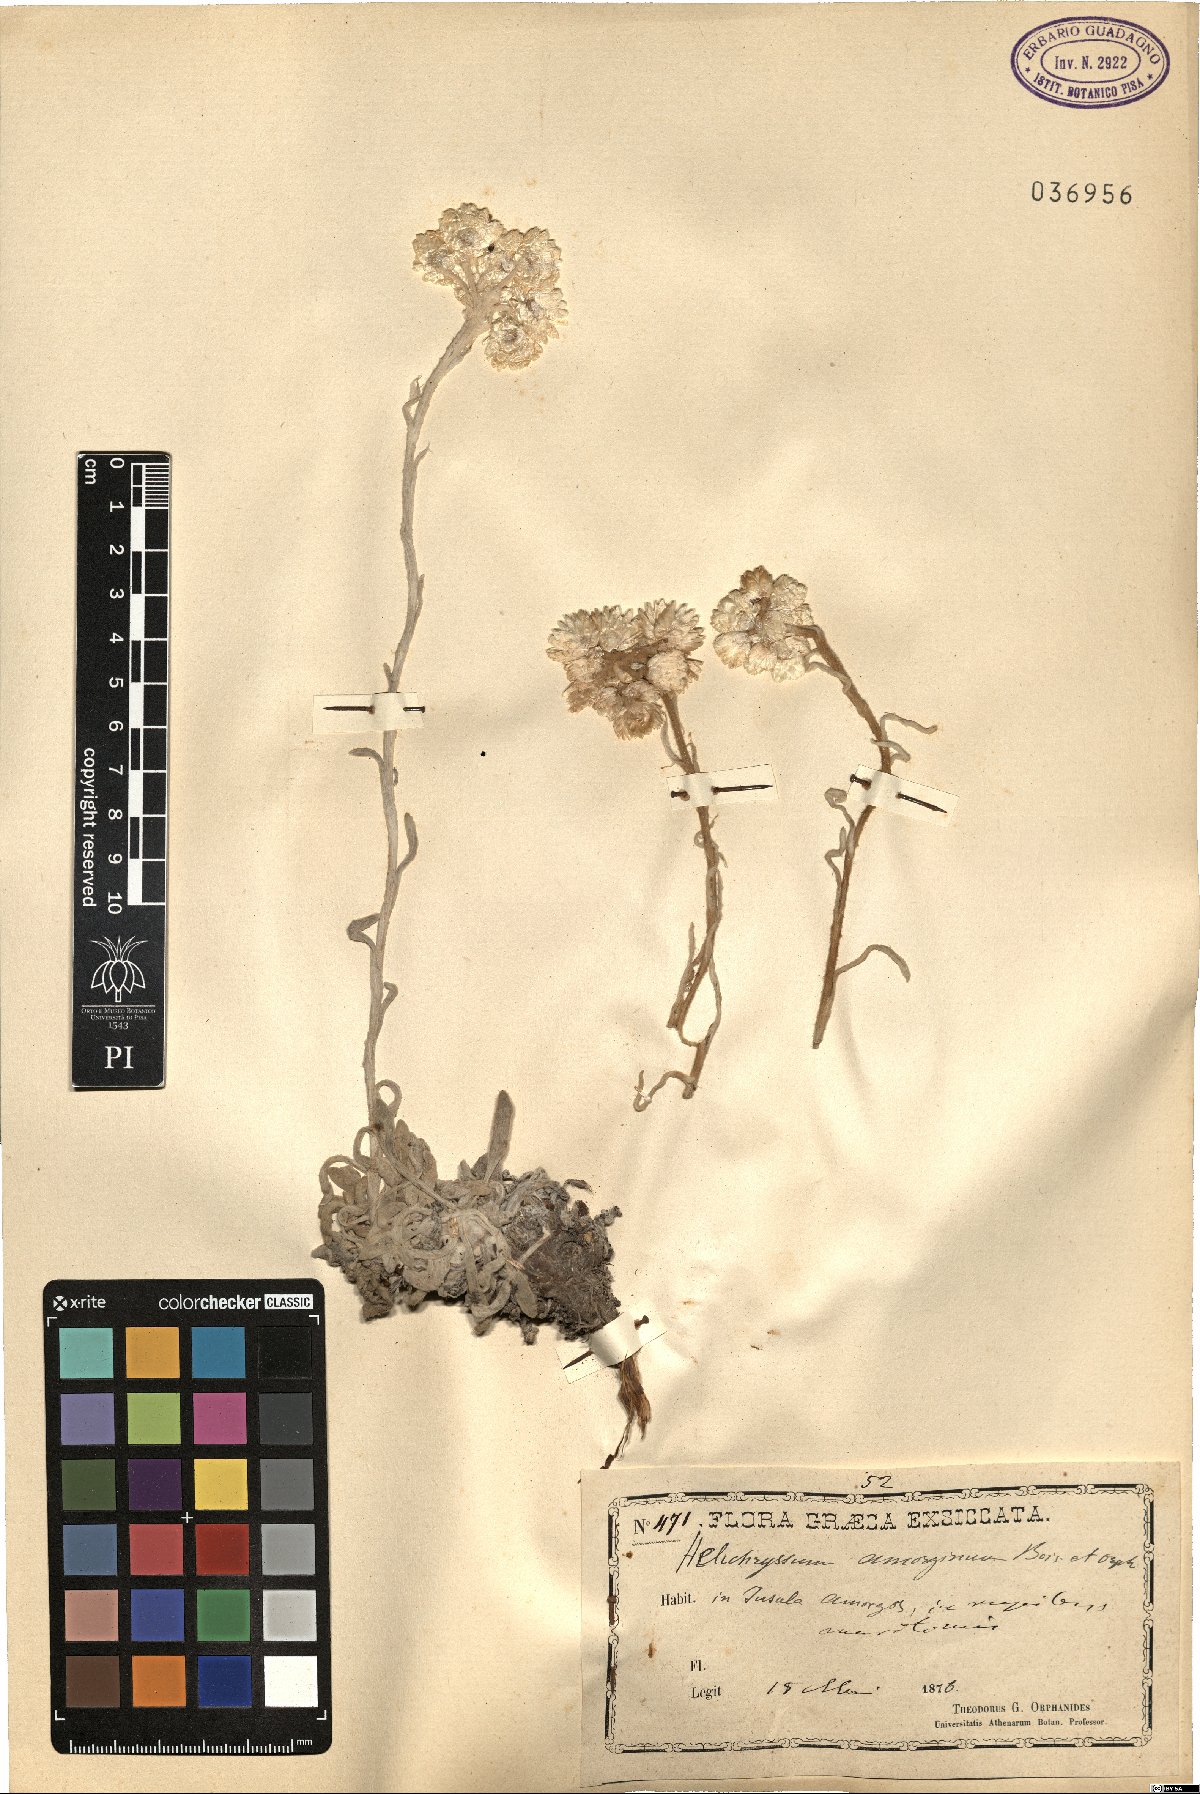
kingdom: Plantae
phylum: Tracheophyta
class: Magnoliopsida
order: Asterales
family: Asteraceae
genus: Helichrysum
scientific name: Helichrysum amorginum
